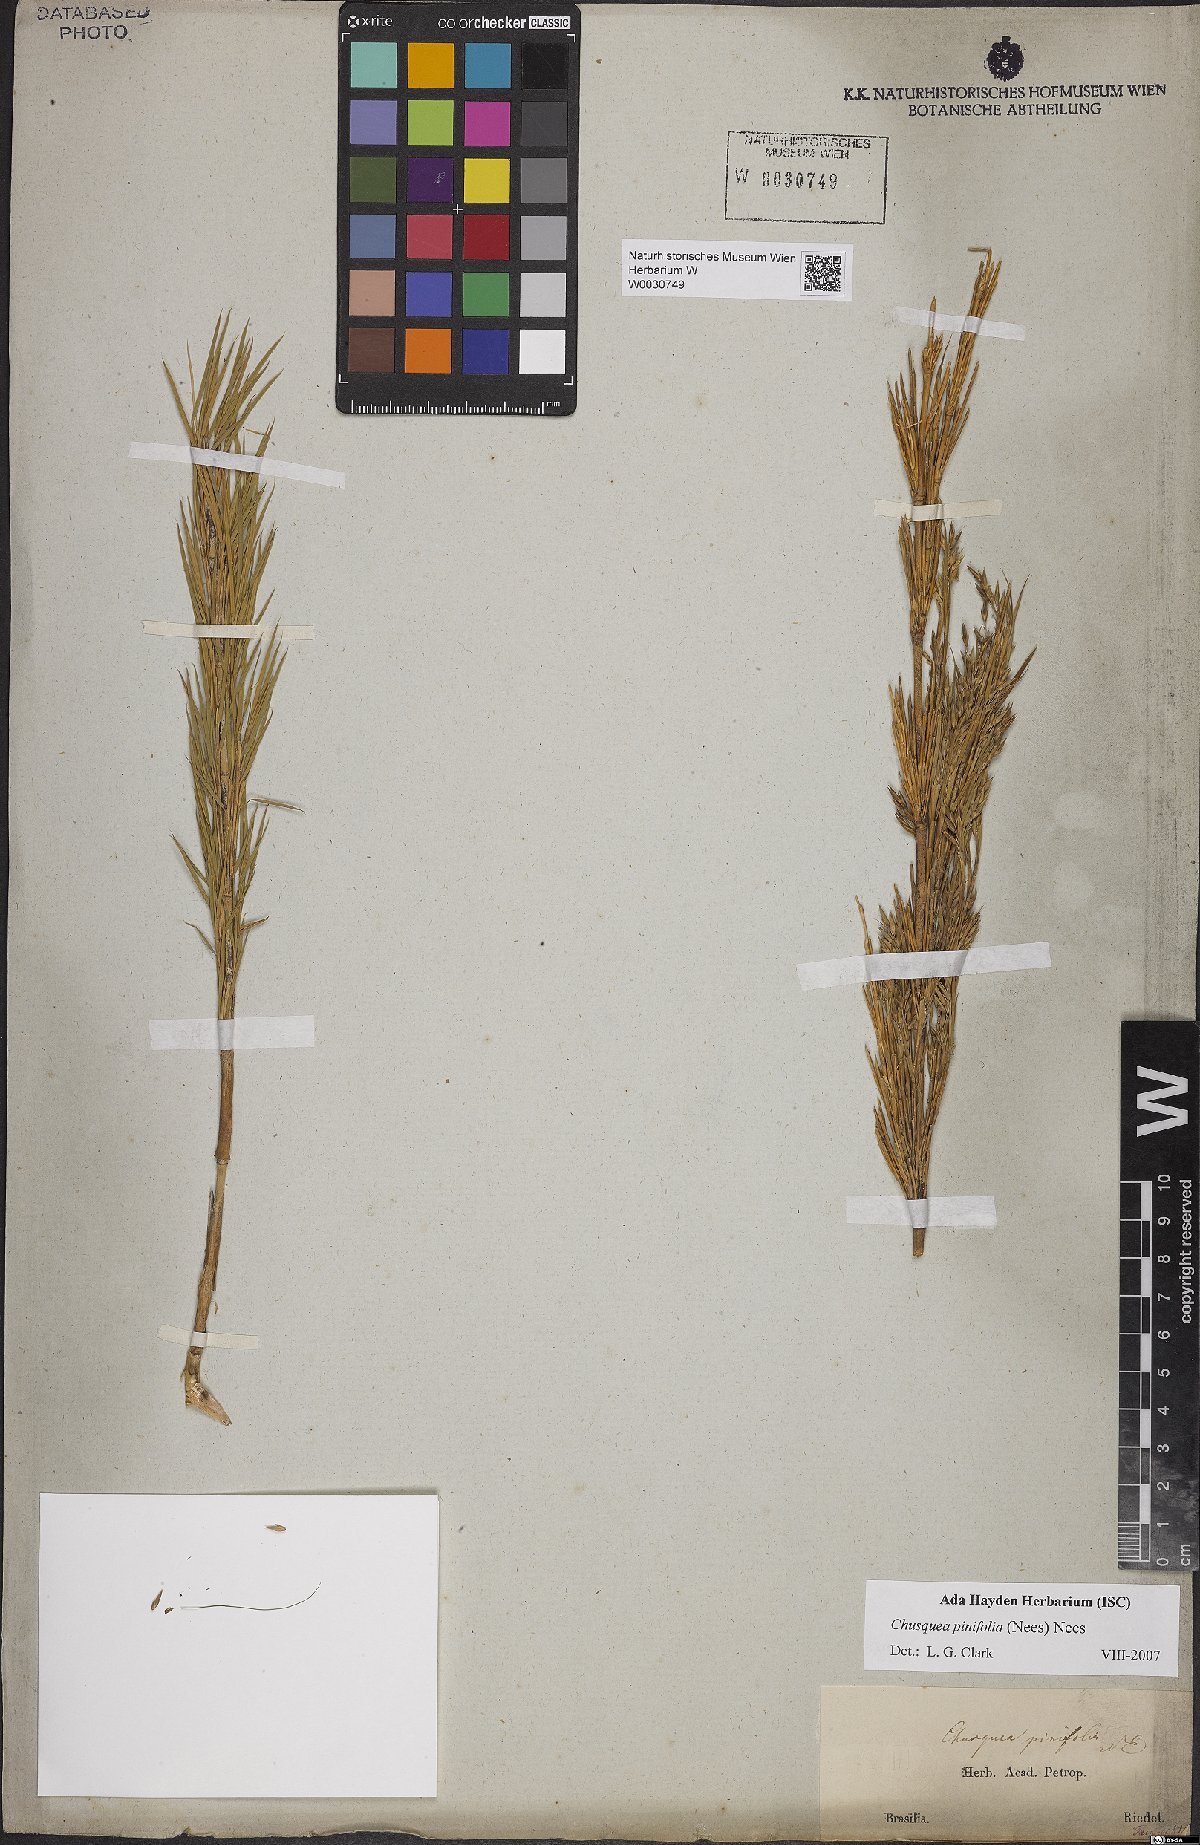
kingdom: Plantae
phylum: Tracheophyta
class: Liliopsida
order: Poales
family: Poaceae
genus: Chusquea
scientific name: Chusquea pinifolia
